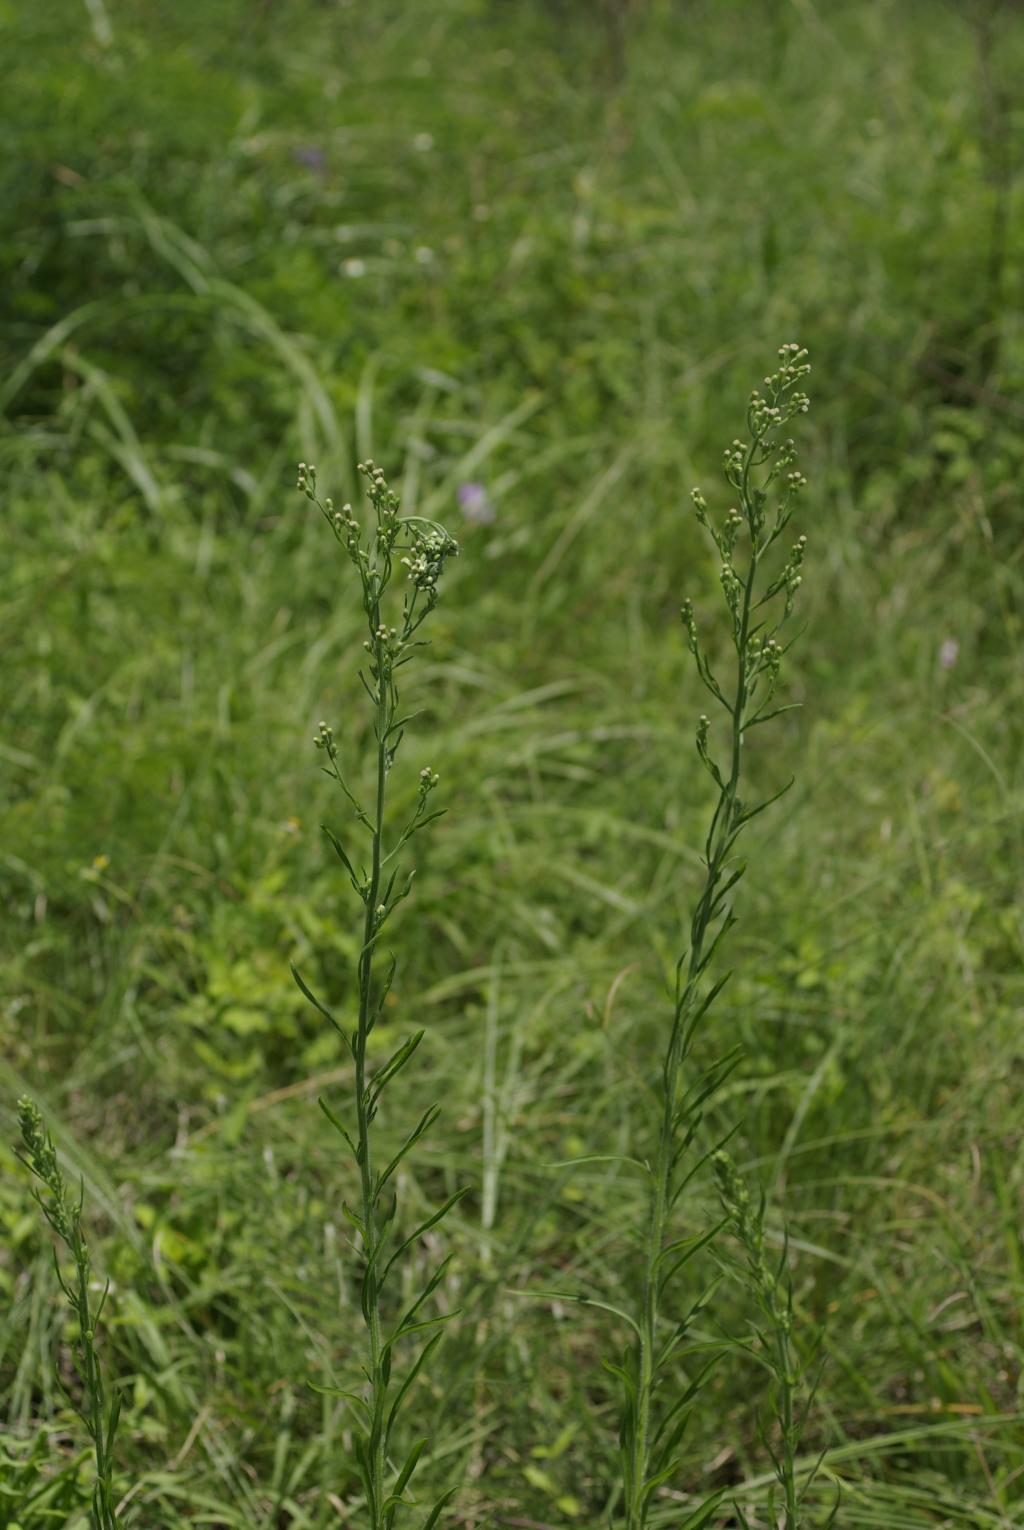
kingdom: Plantae
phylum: Tracheophyta
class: Magnoliopsida
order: Asterales
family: Asteraceae
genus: Erigeron
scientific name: Erigeron bonariensis
